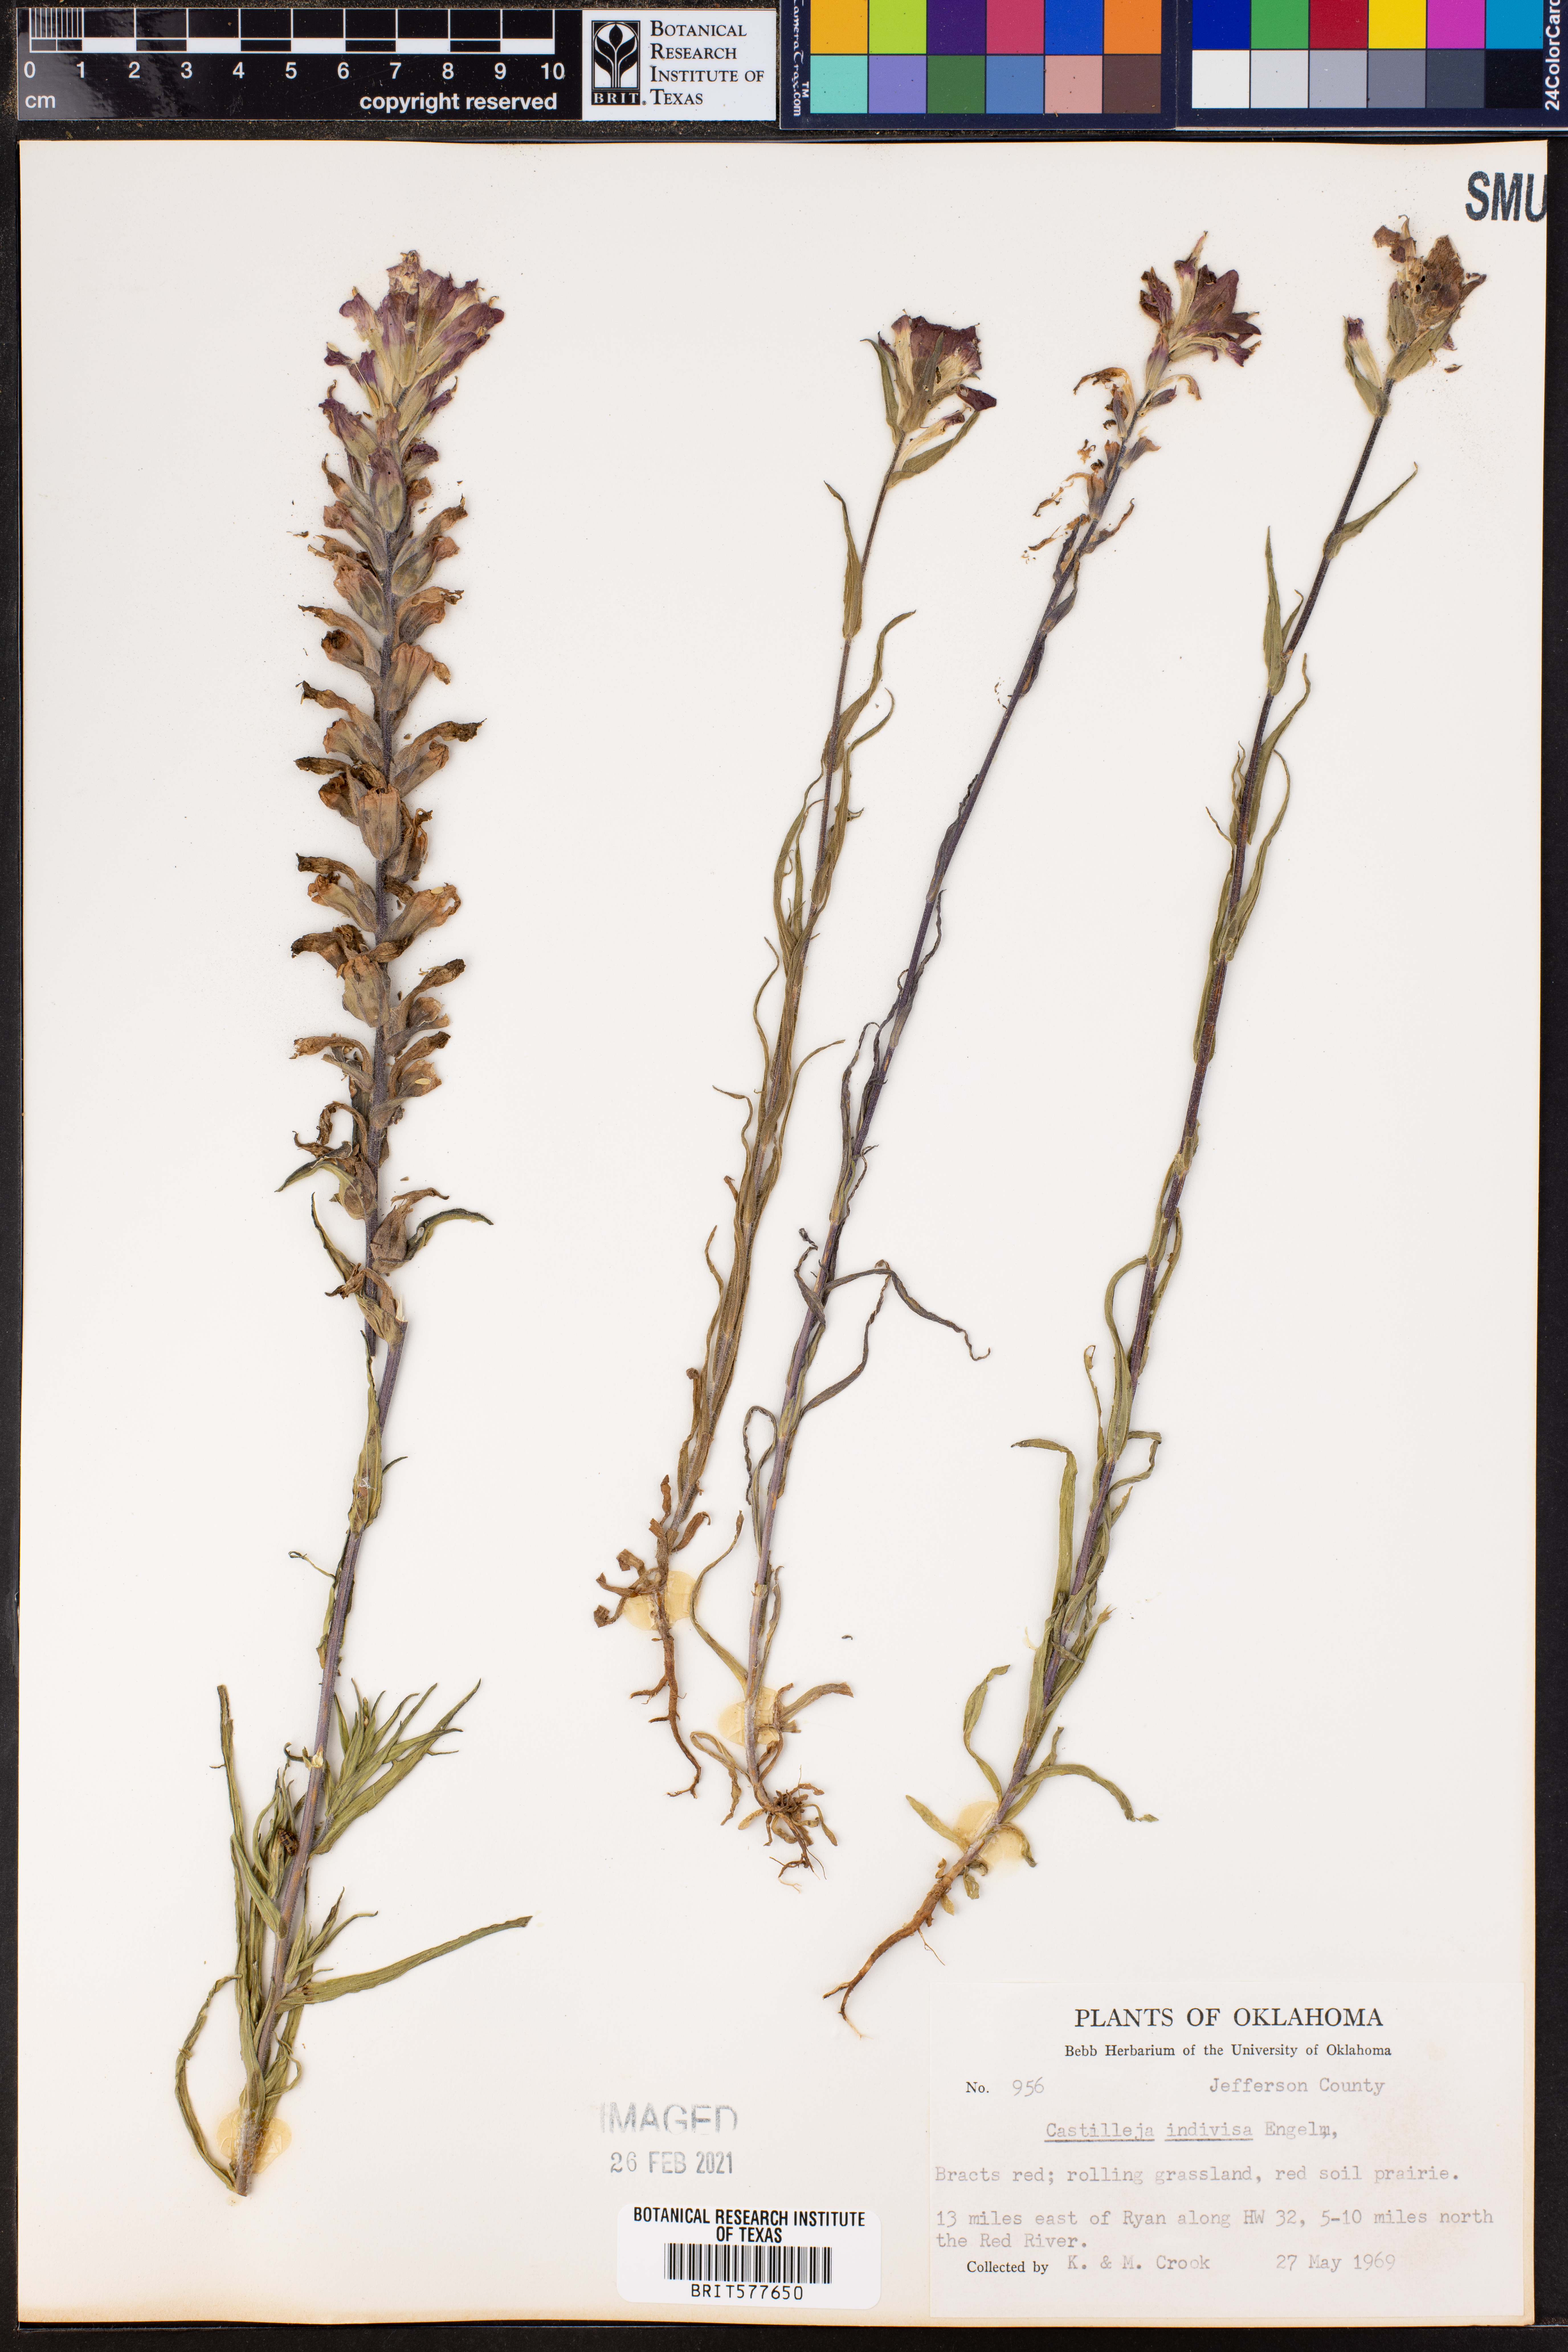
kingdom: Plantae
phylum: Tracheophyta
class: Magnoliopsida
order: Lamiales
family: Orobanchaceae
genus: Castilleja
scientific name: Castilleja indivisa
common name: Texas paintbrush
